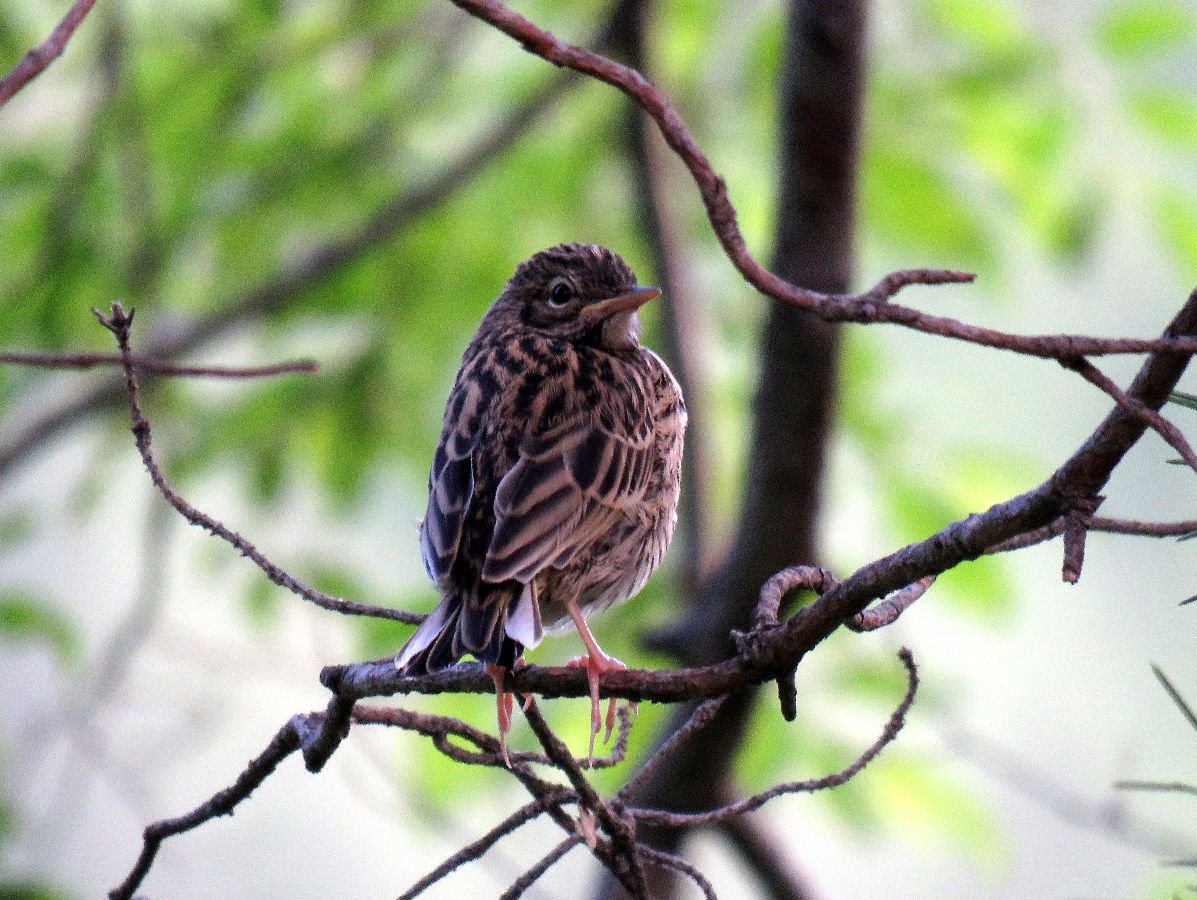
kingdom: Animalia
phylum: Chordata
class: Aves
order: Passeriformes
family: Motacillidae
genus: Anthus
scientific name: Anthus trivialis
